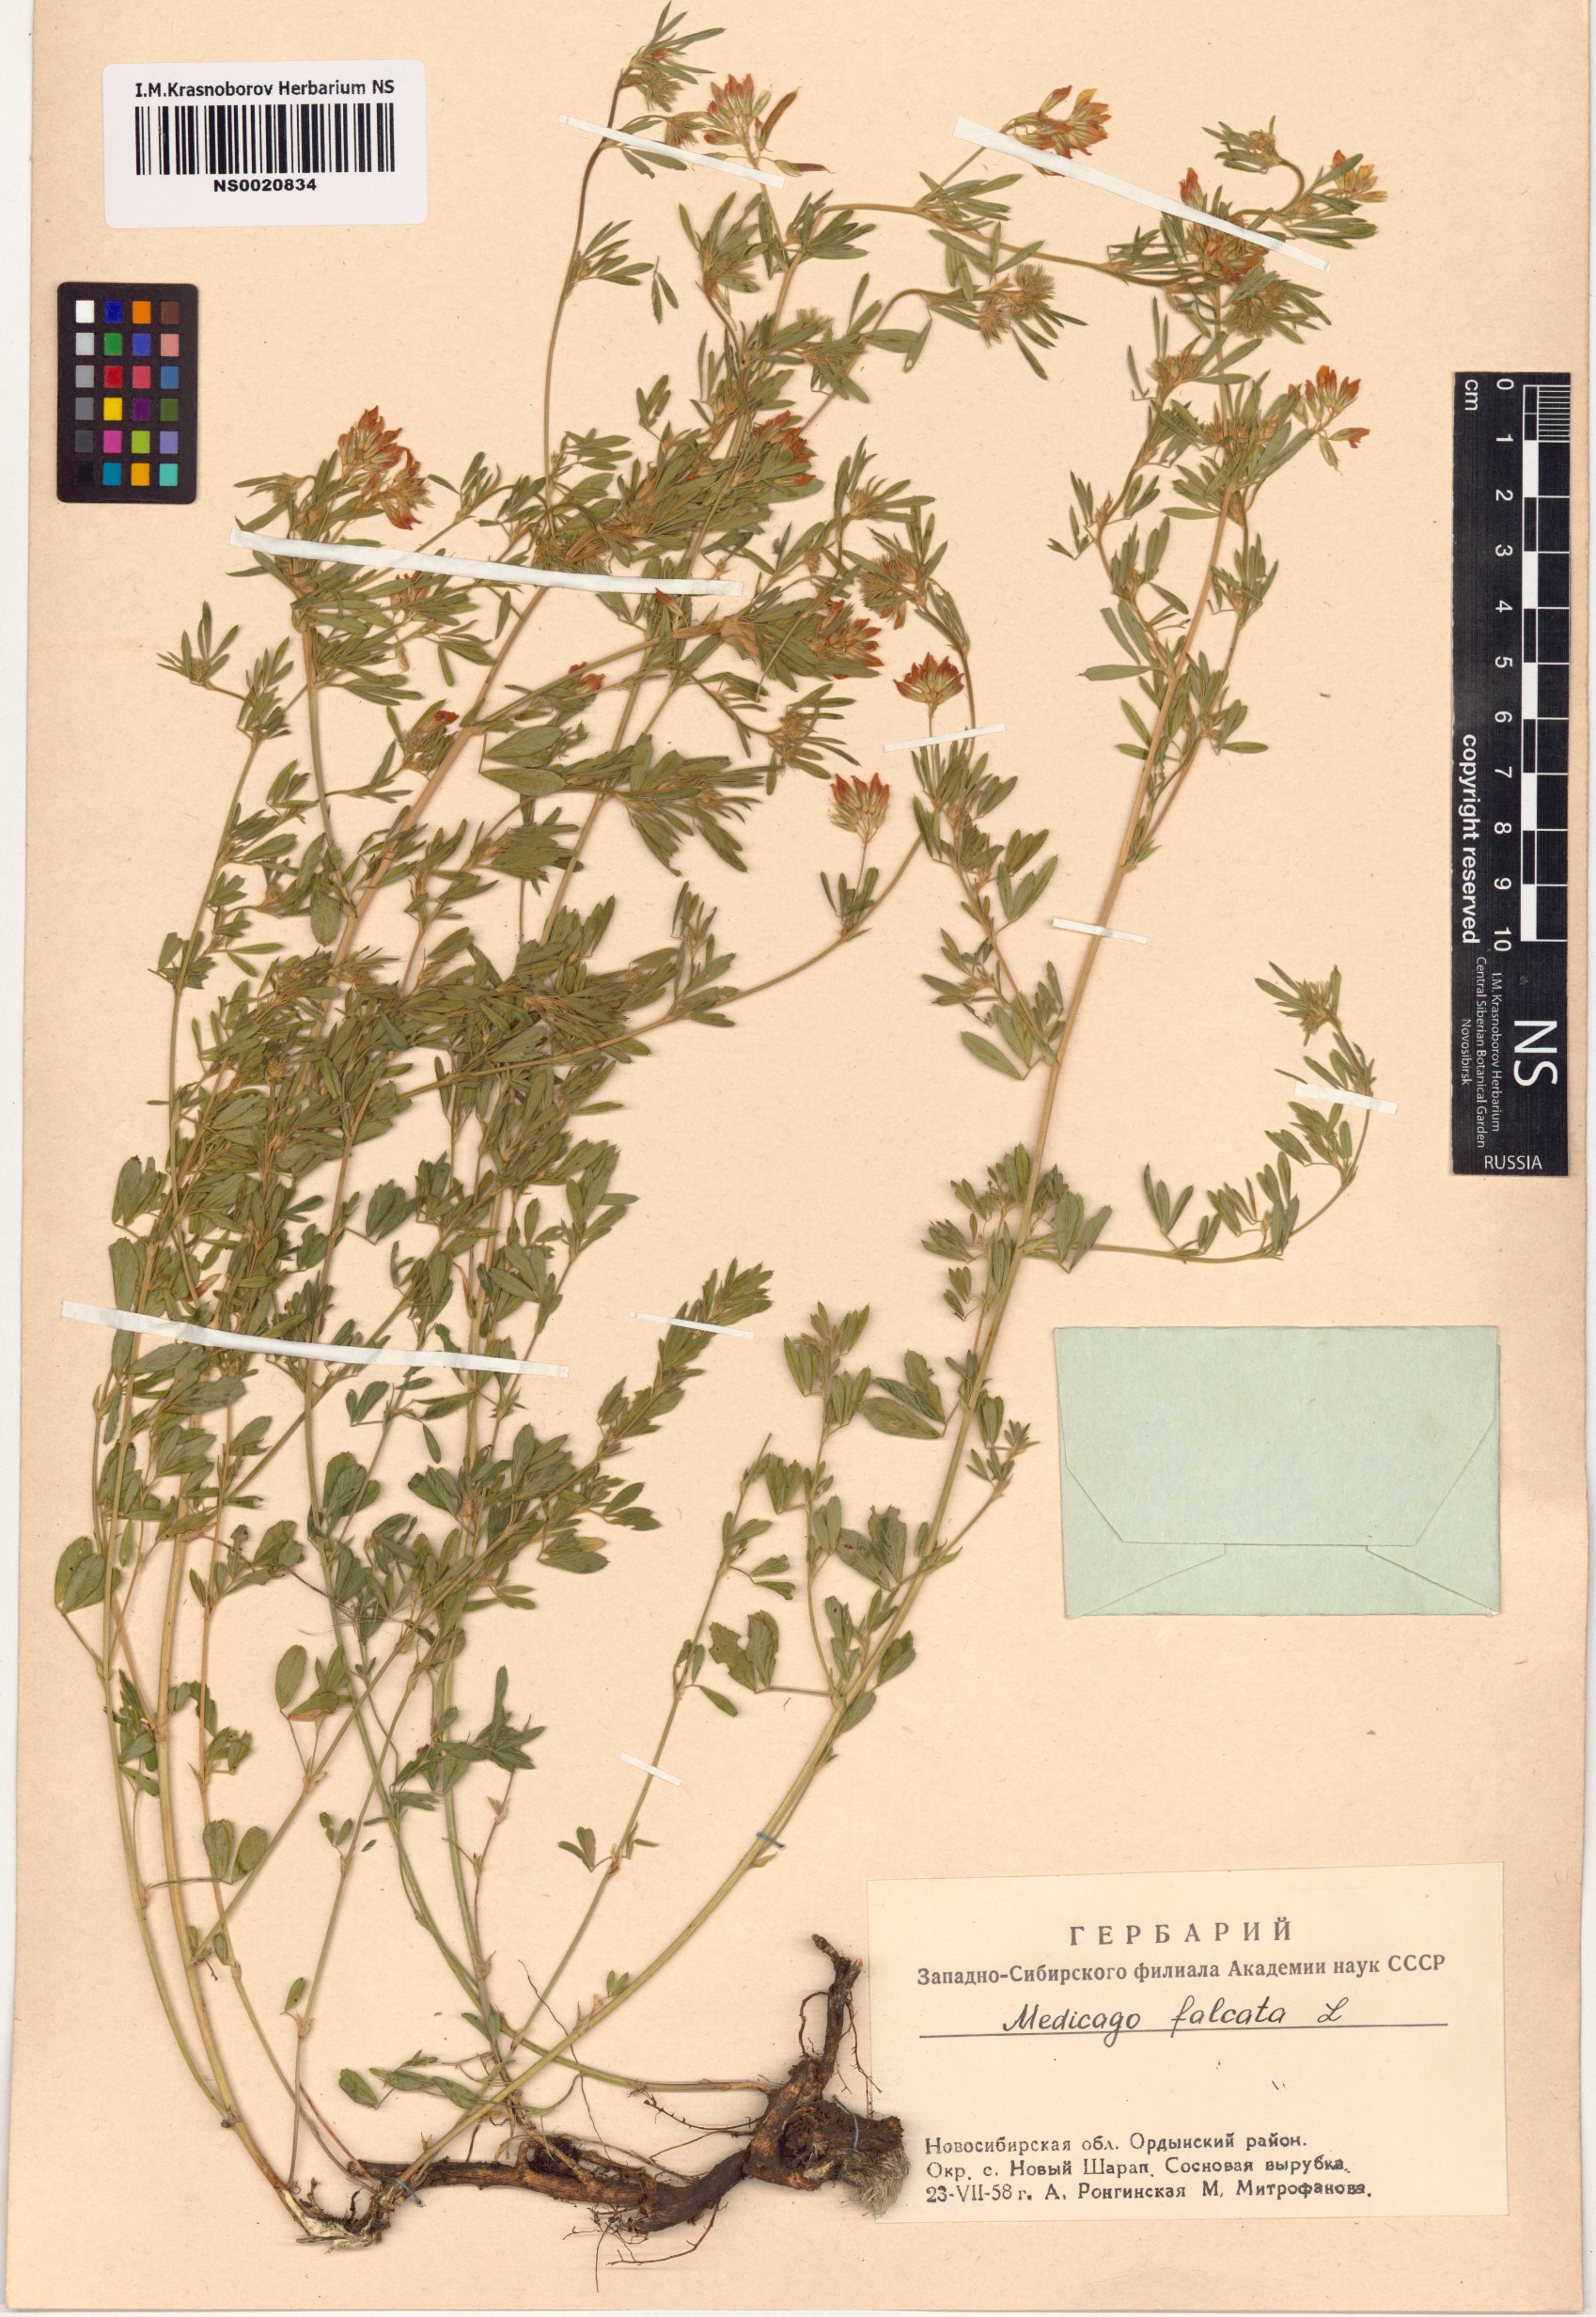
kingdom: Plantae
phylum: Tracheophyta
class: Magnoliopsida
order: Fabales
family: Fabaceae
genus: Medicago
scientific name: Medicago falcata
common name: Sickle medick
